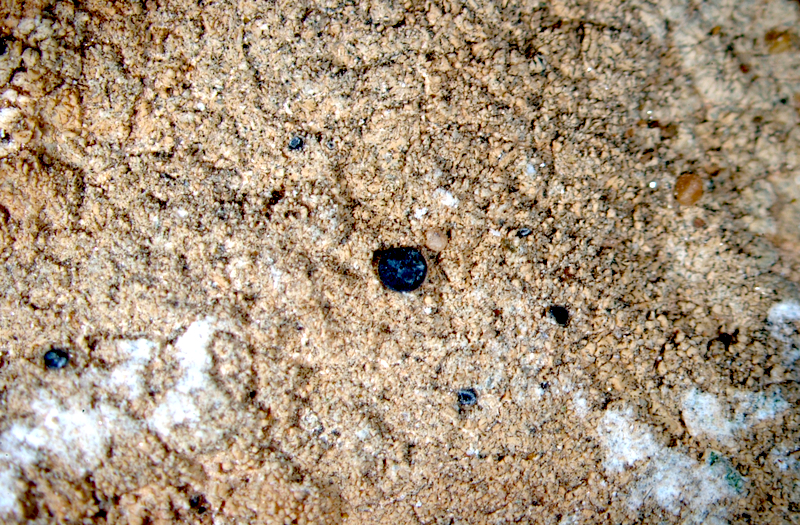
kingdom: Fungi
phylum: Ascomycota
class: Lecanoromycetes
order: Lecanorales
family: Lecanoraceae
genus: Carbonea
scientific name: Carbonea
